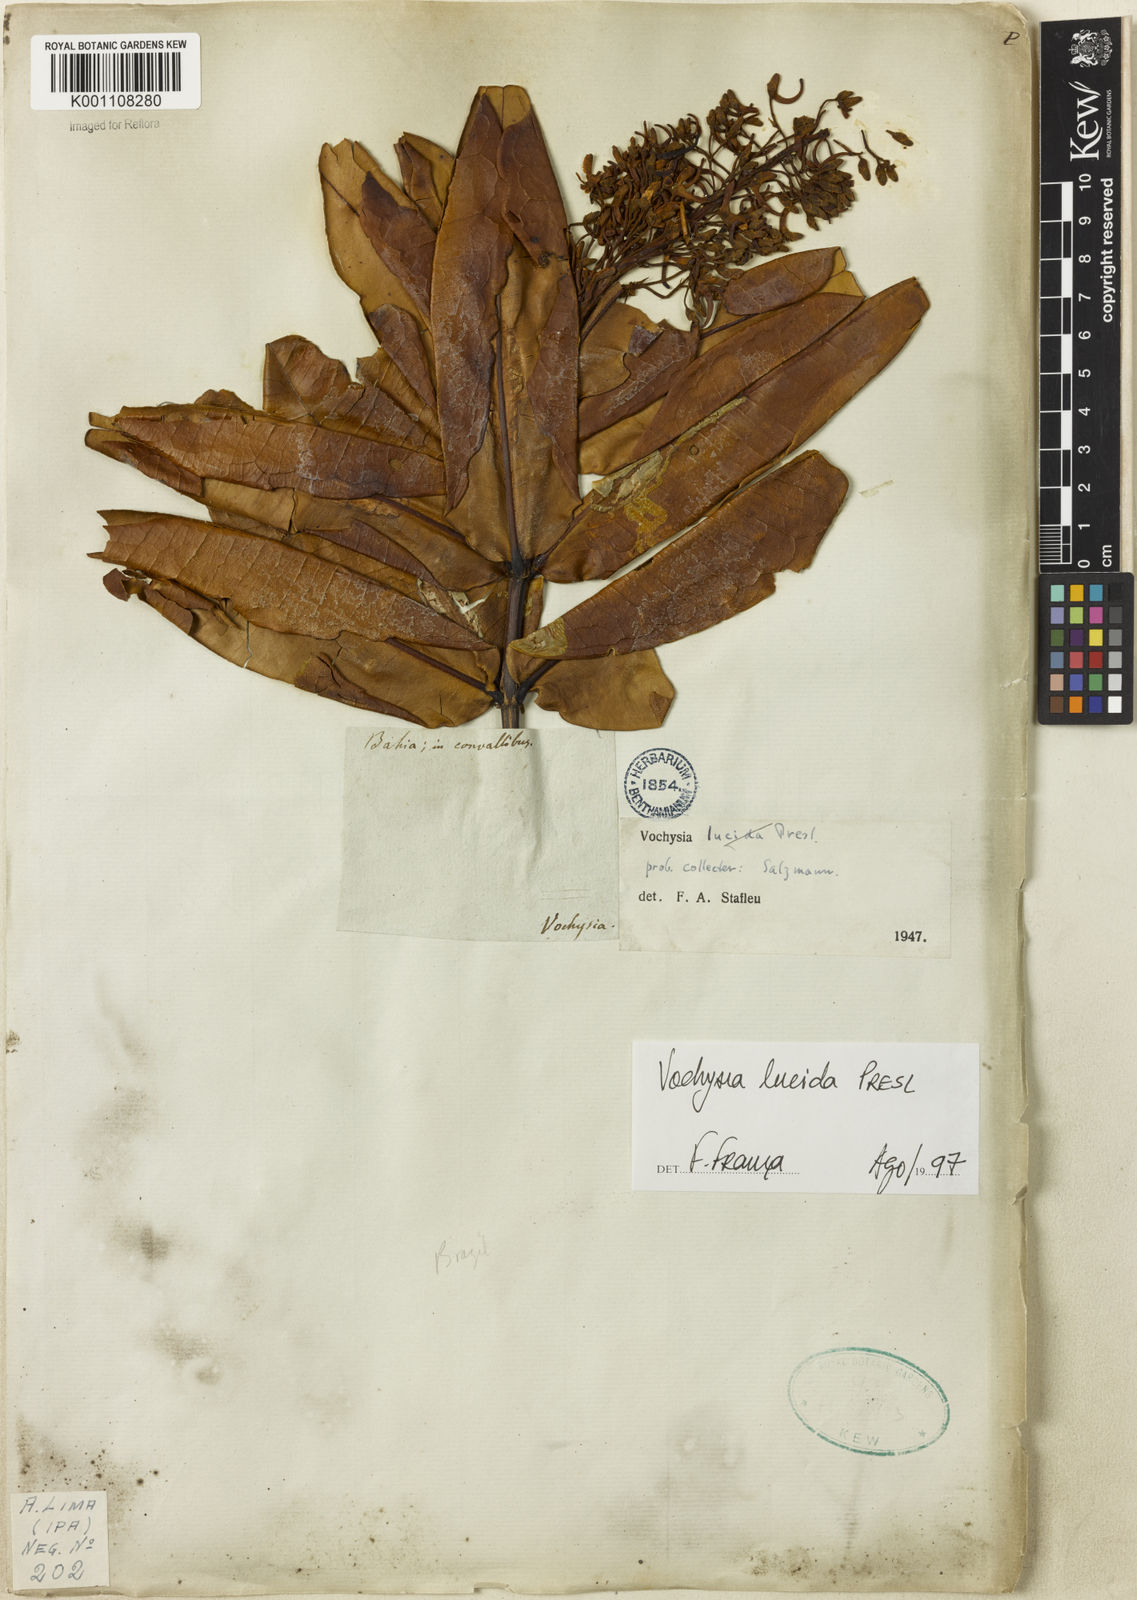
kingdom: Plantae
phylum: Tracheophyta
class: Magnoliopsida
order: Myrtales
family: Vochysiaceae
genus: Vochysia
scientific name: Vochysia lucida
